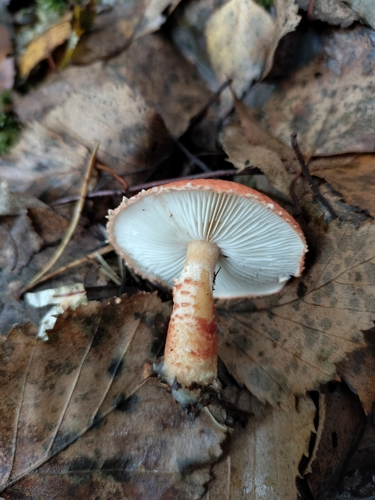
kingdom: Fungi
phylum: Basidiomycota
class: Agaricomycetes
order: Agaricales
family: Agaricaceae
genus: Cystodermella
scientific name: Cystodermella cinnabarina
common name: Cinnabar powdercap
